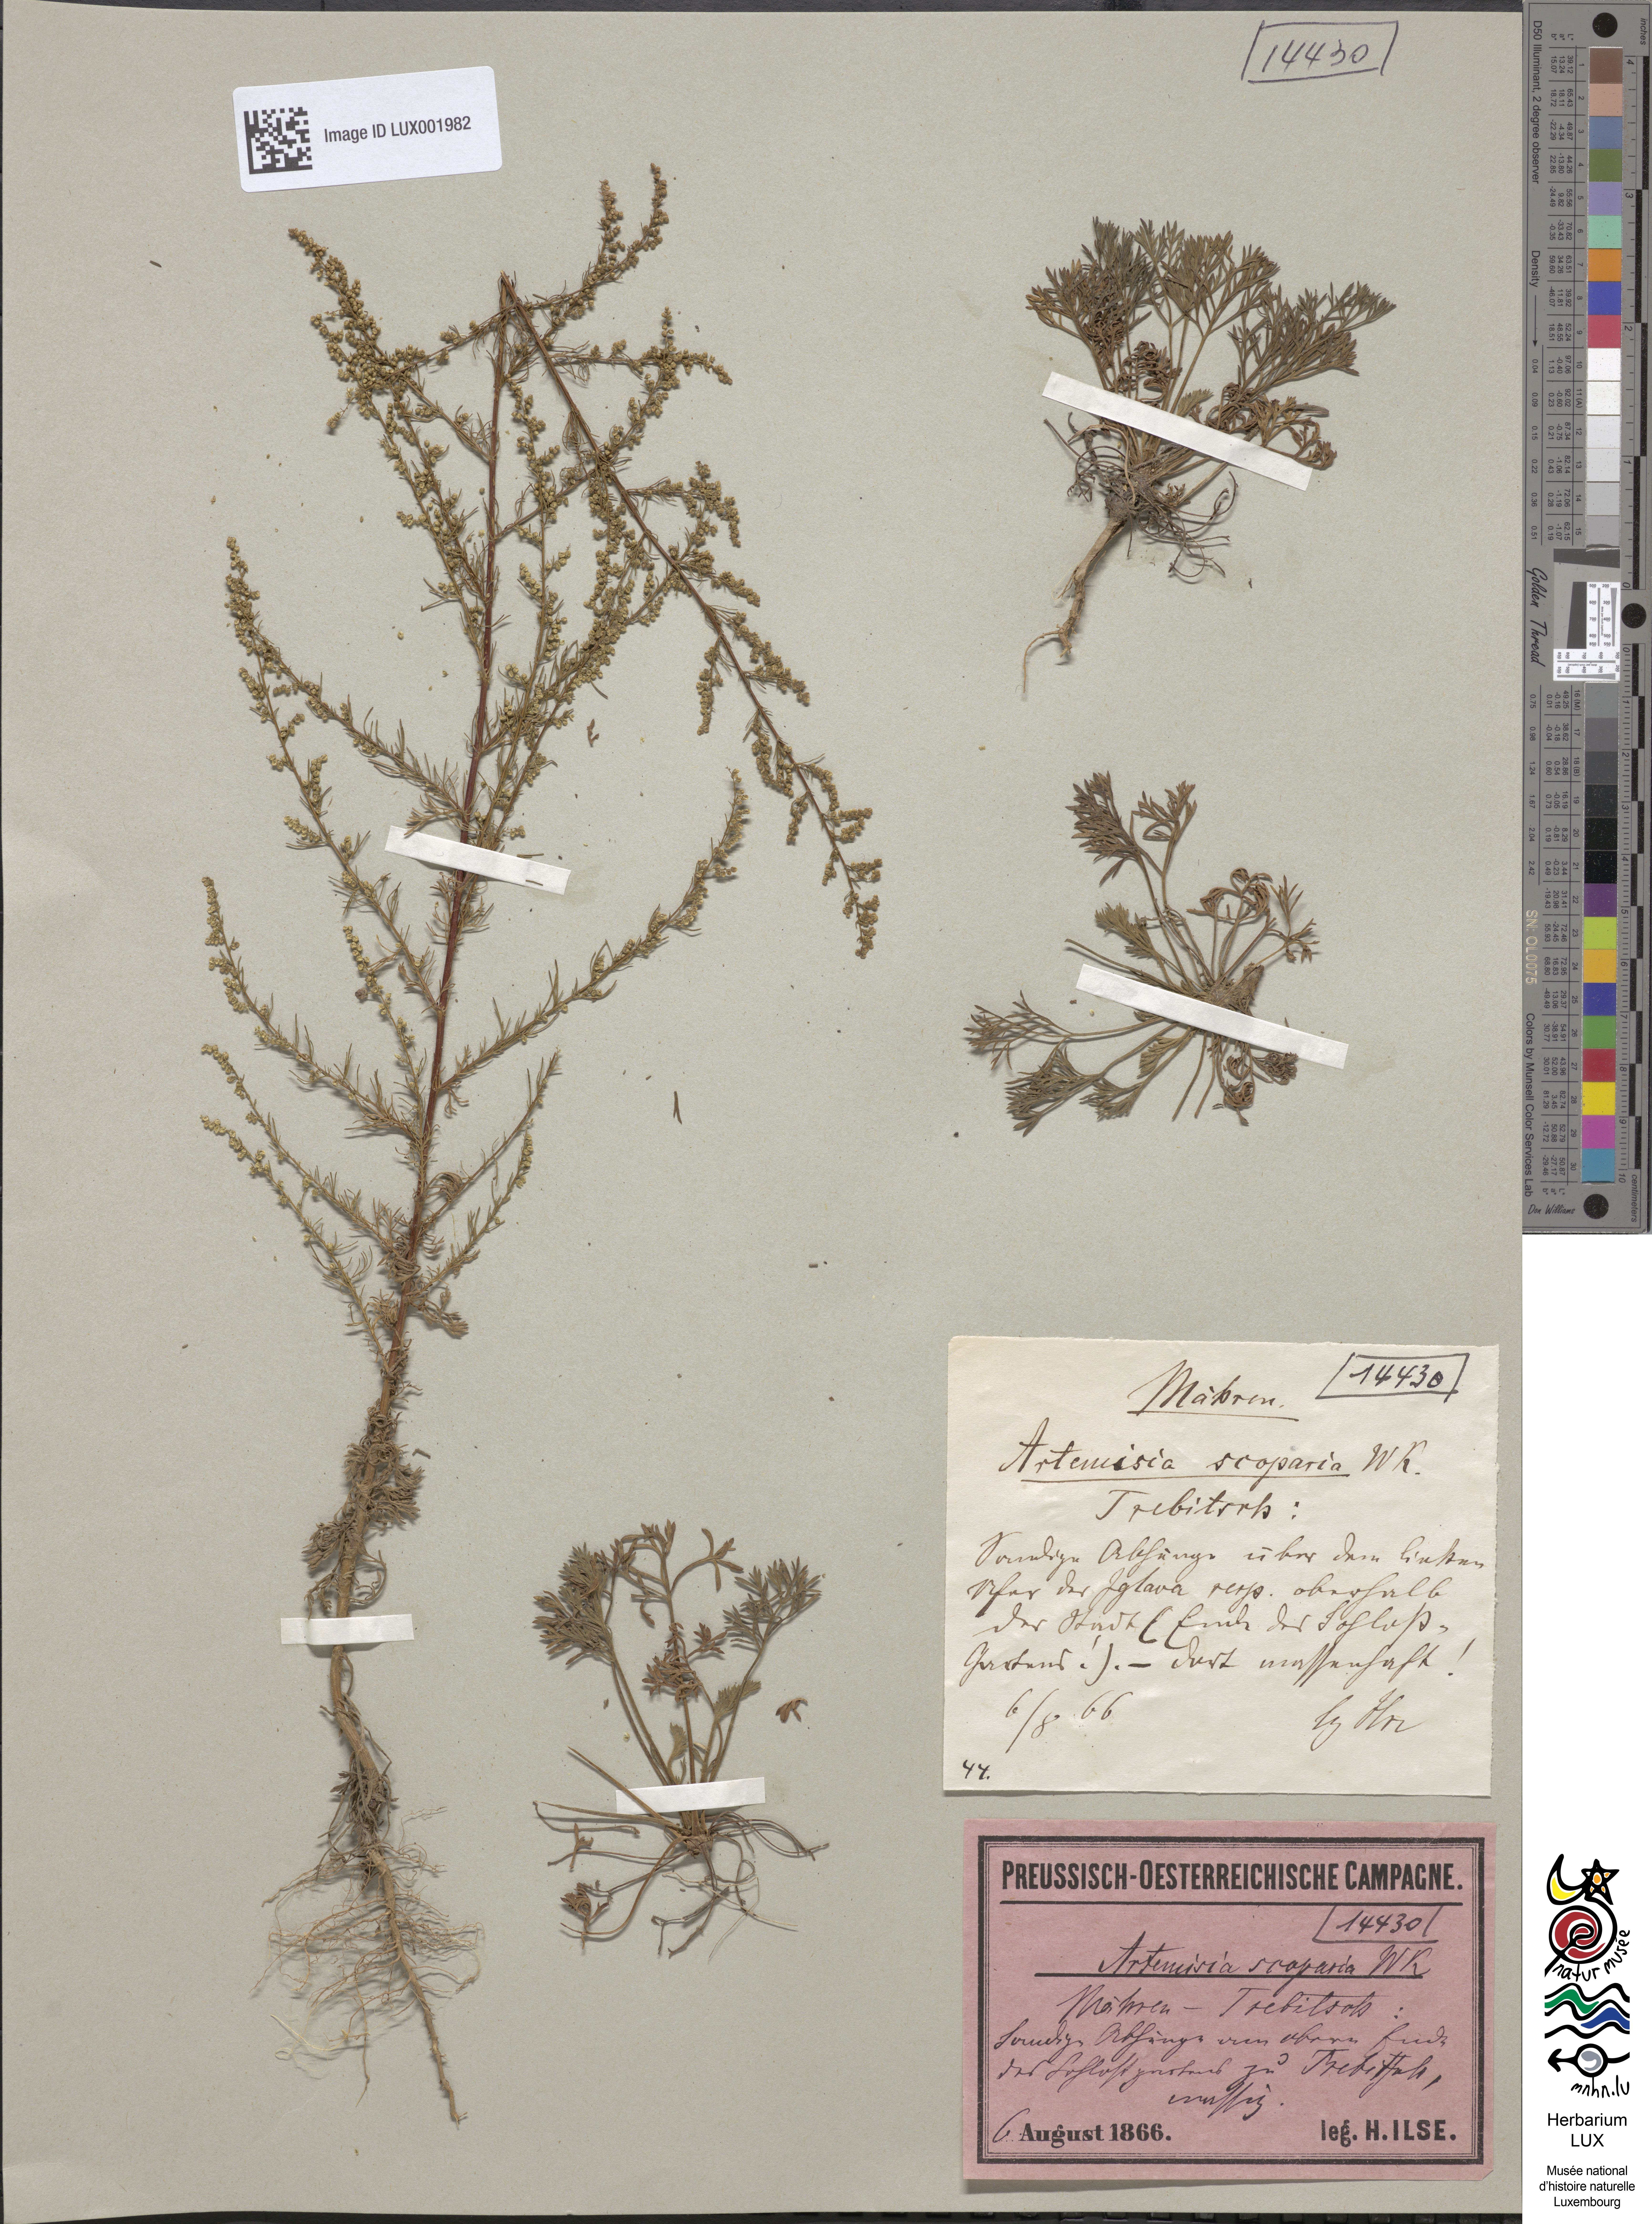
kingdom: Plantae
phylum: Tracheophyta
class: Magnoliopsida
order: Asterales
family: Asteraceae
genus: Artemisia
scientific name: Artemisia scoparia
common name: Redstem wormwood
